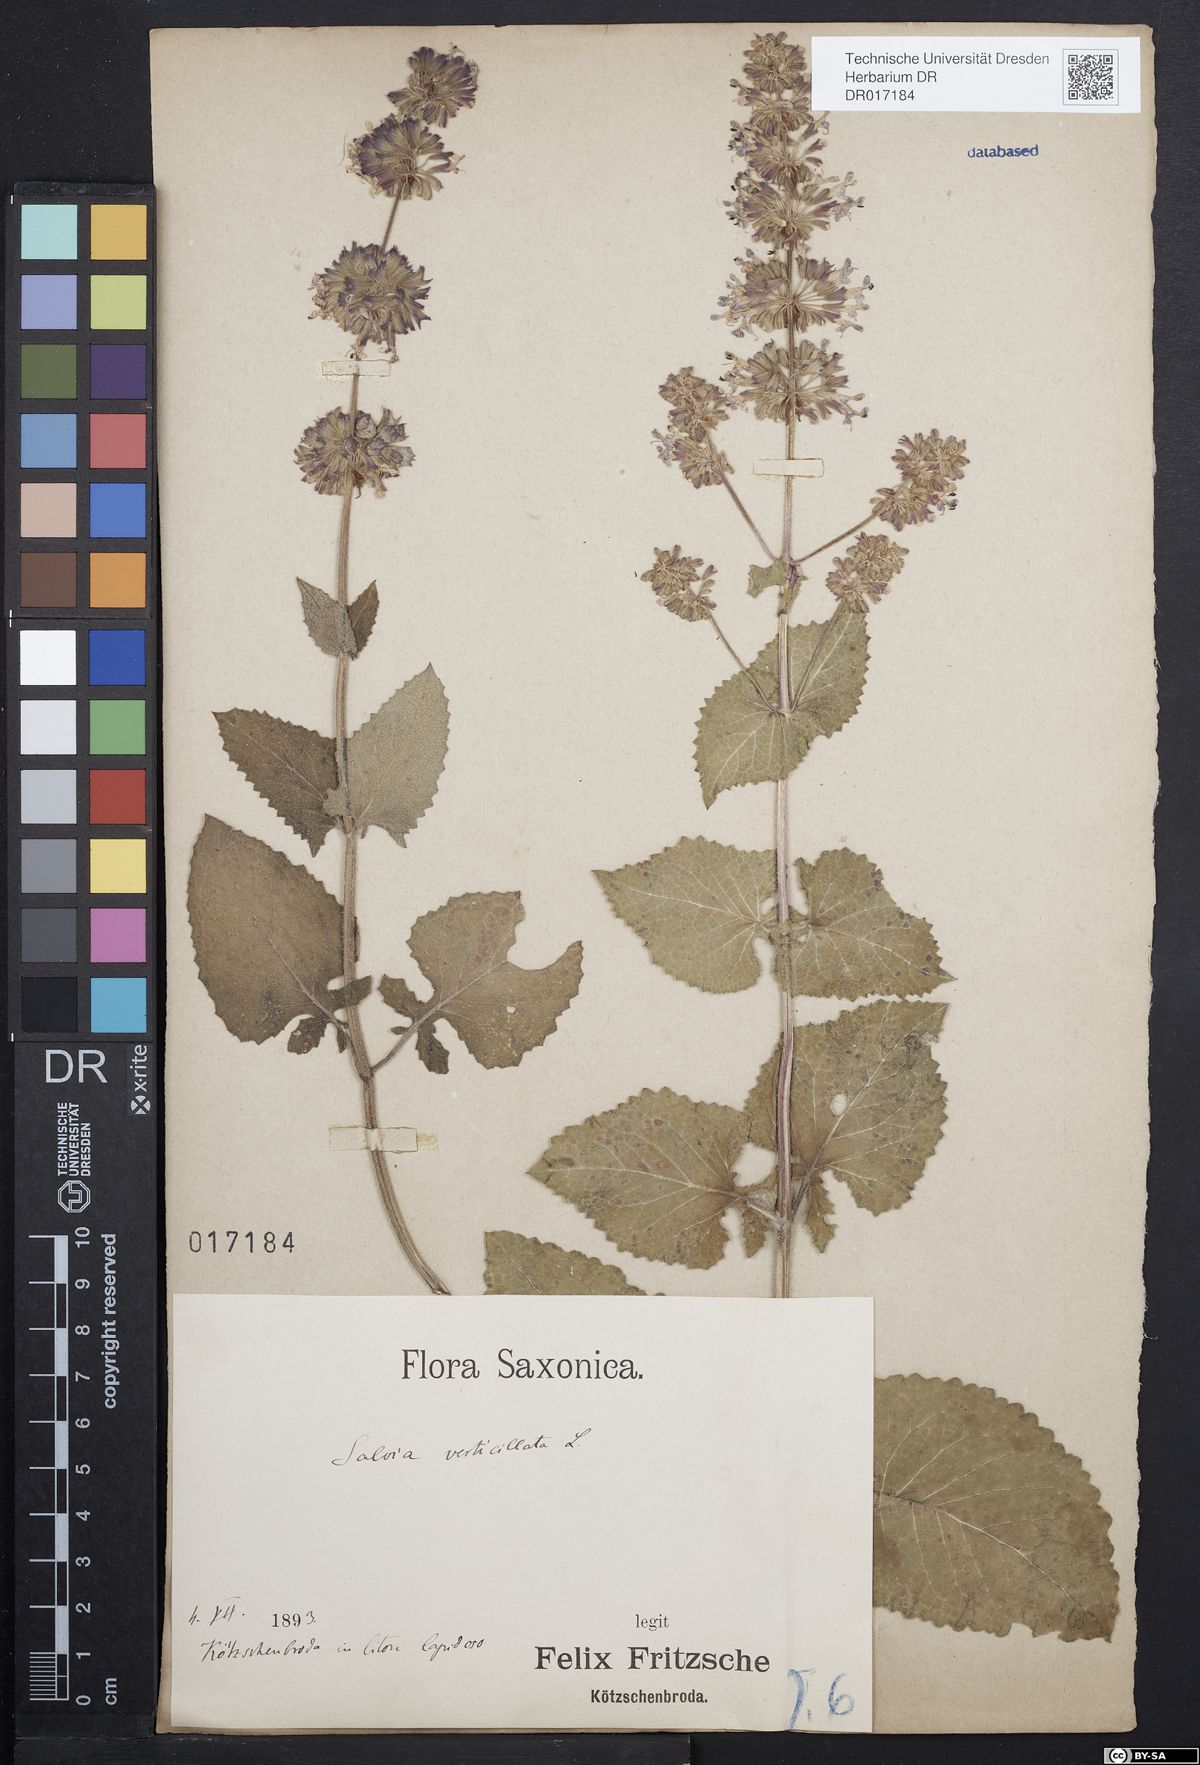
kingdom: Plantae
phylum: Tracheophyta
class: Magnoliopsida
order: Lamiales
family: Lamiaceae
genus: Salvia
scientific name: Salvia verticillata
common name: Whorled clary
